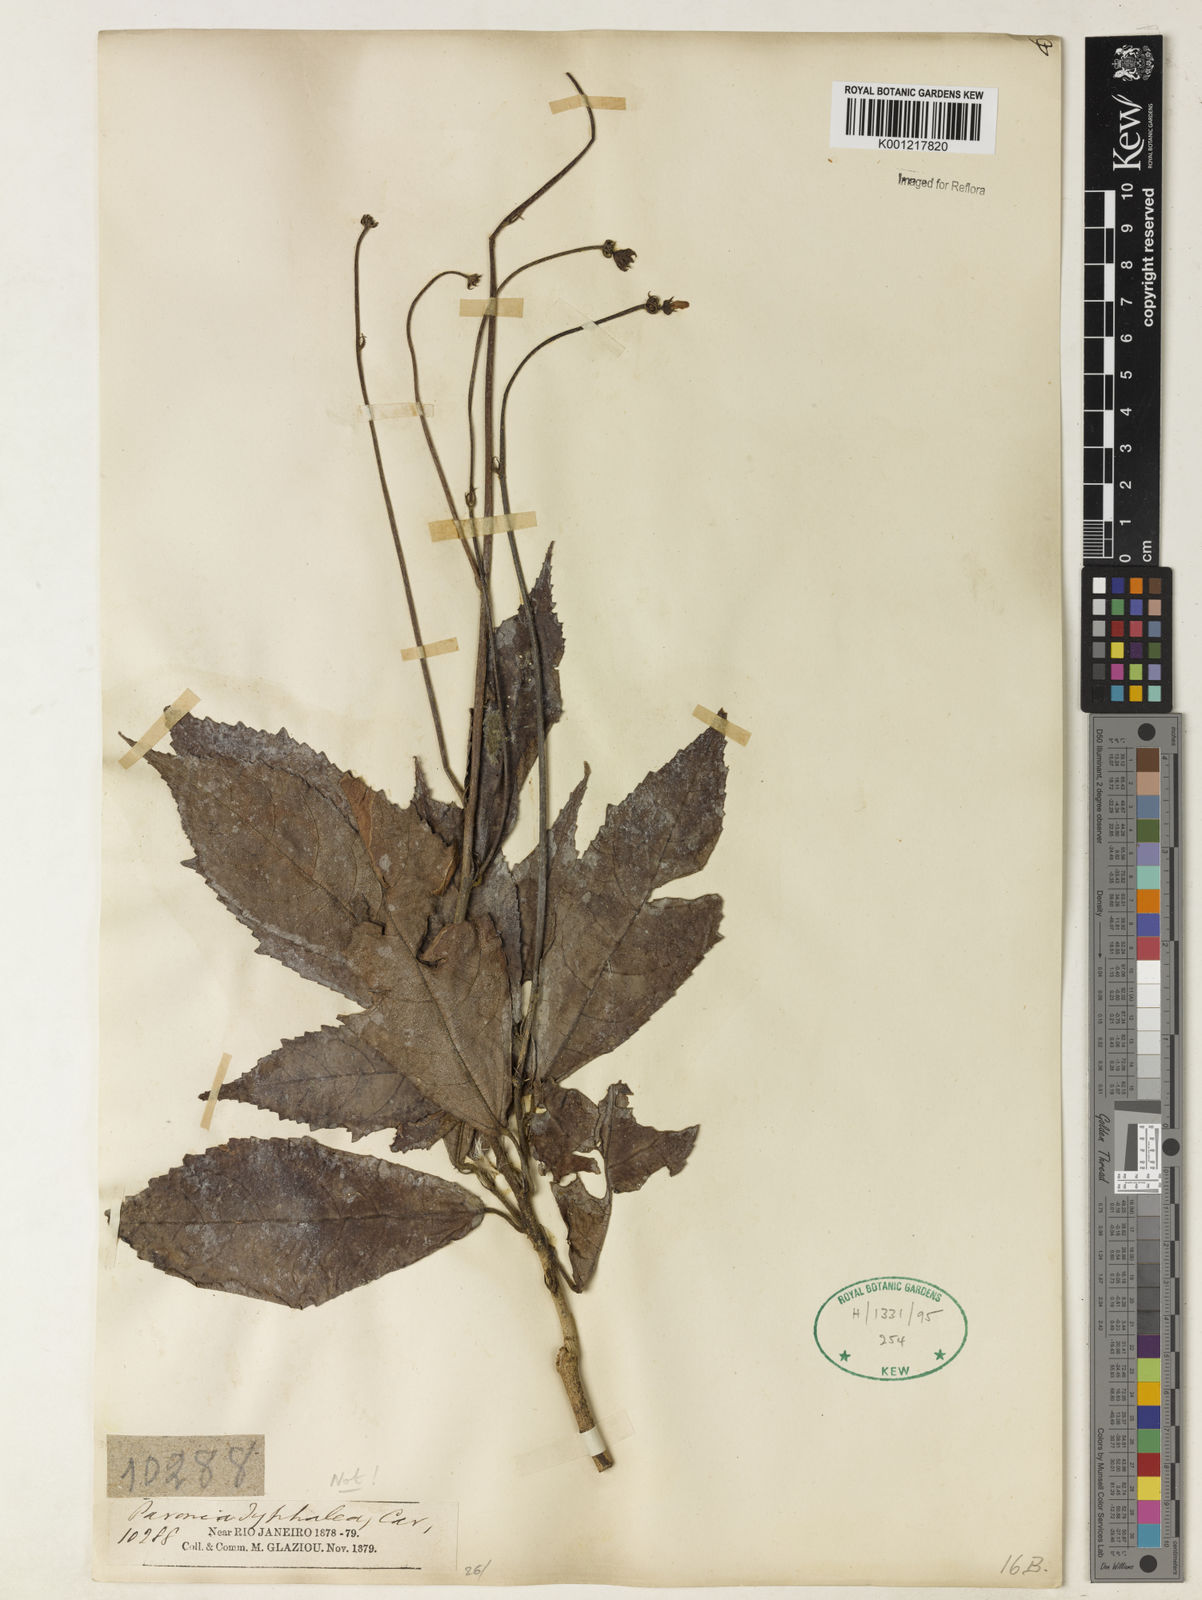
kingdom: Plantae
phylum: Tracheophyta
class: Magnoliopsida
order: Malvales
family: Malvaceae
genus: Pavonia
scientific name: Pavonia
